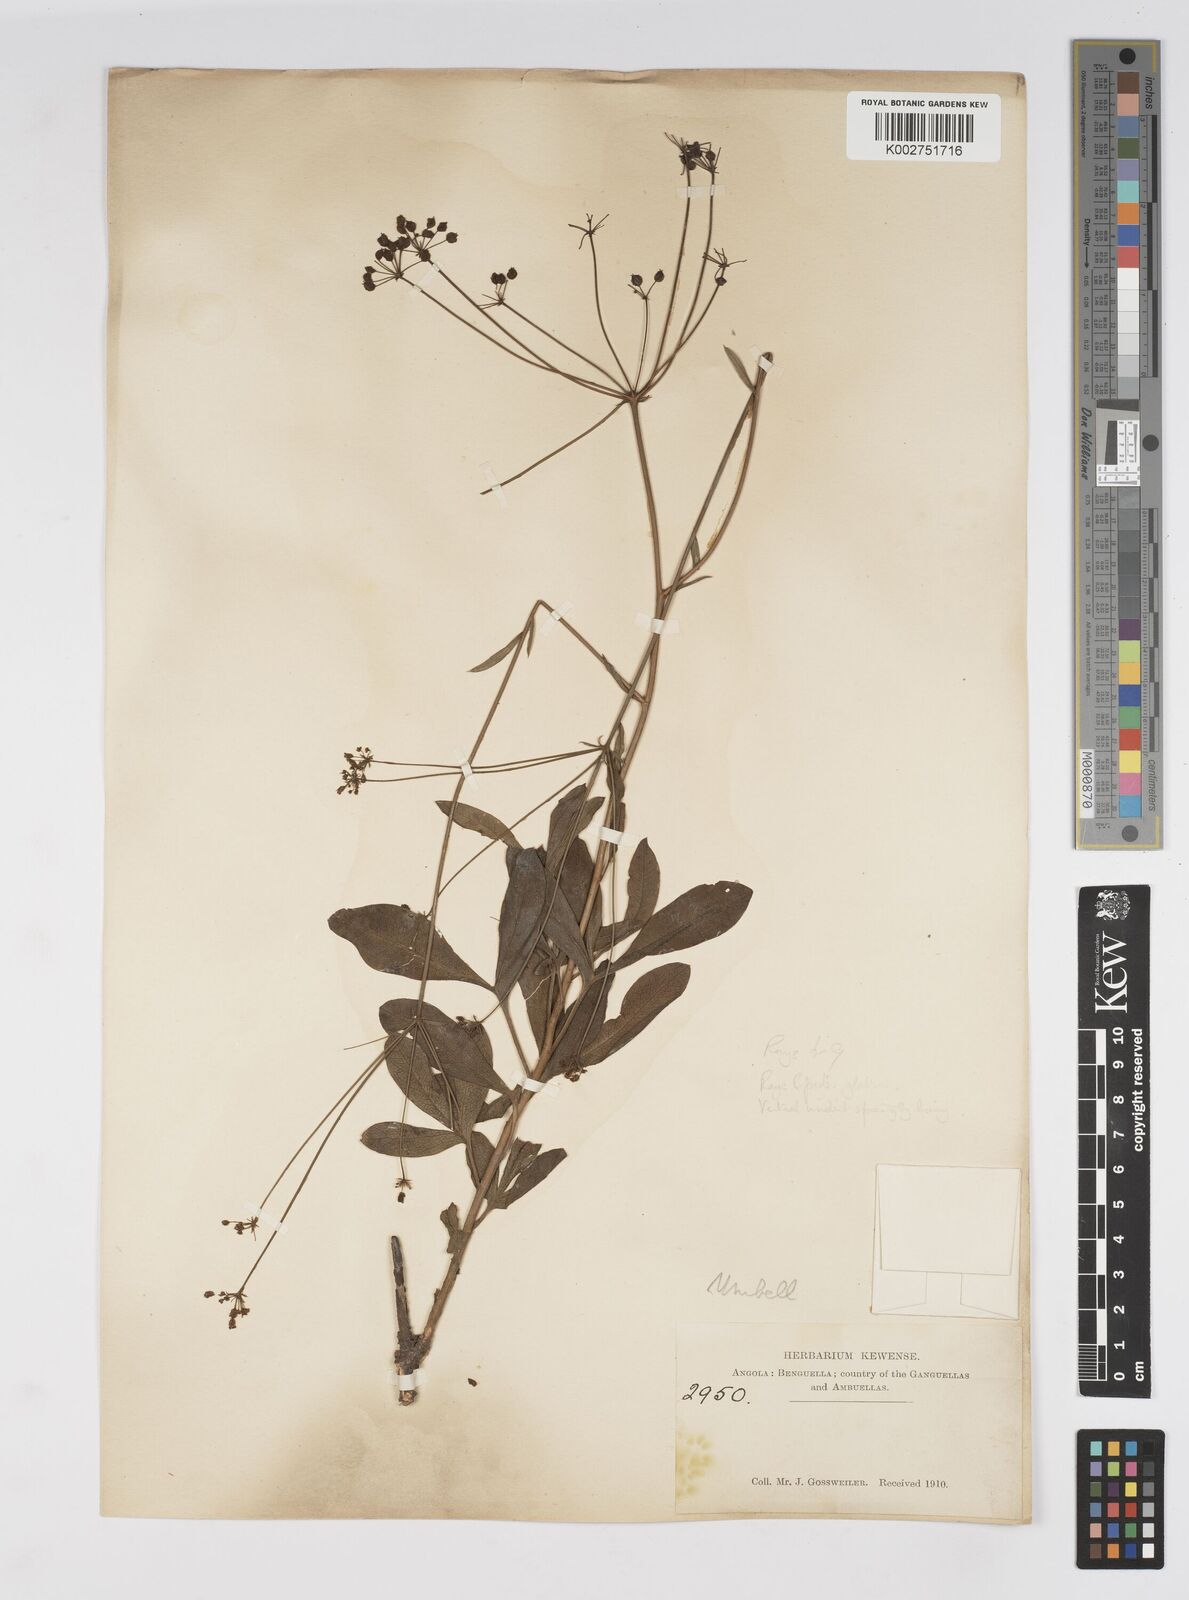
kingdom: Plantae
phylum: Tracheophyta
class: Magnoliopsida
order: Apiales
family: Apiaceae
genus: Heteromorpha
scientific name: Heteromorpha gossweileri
